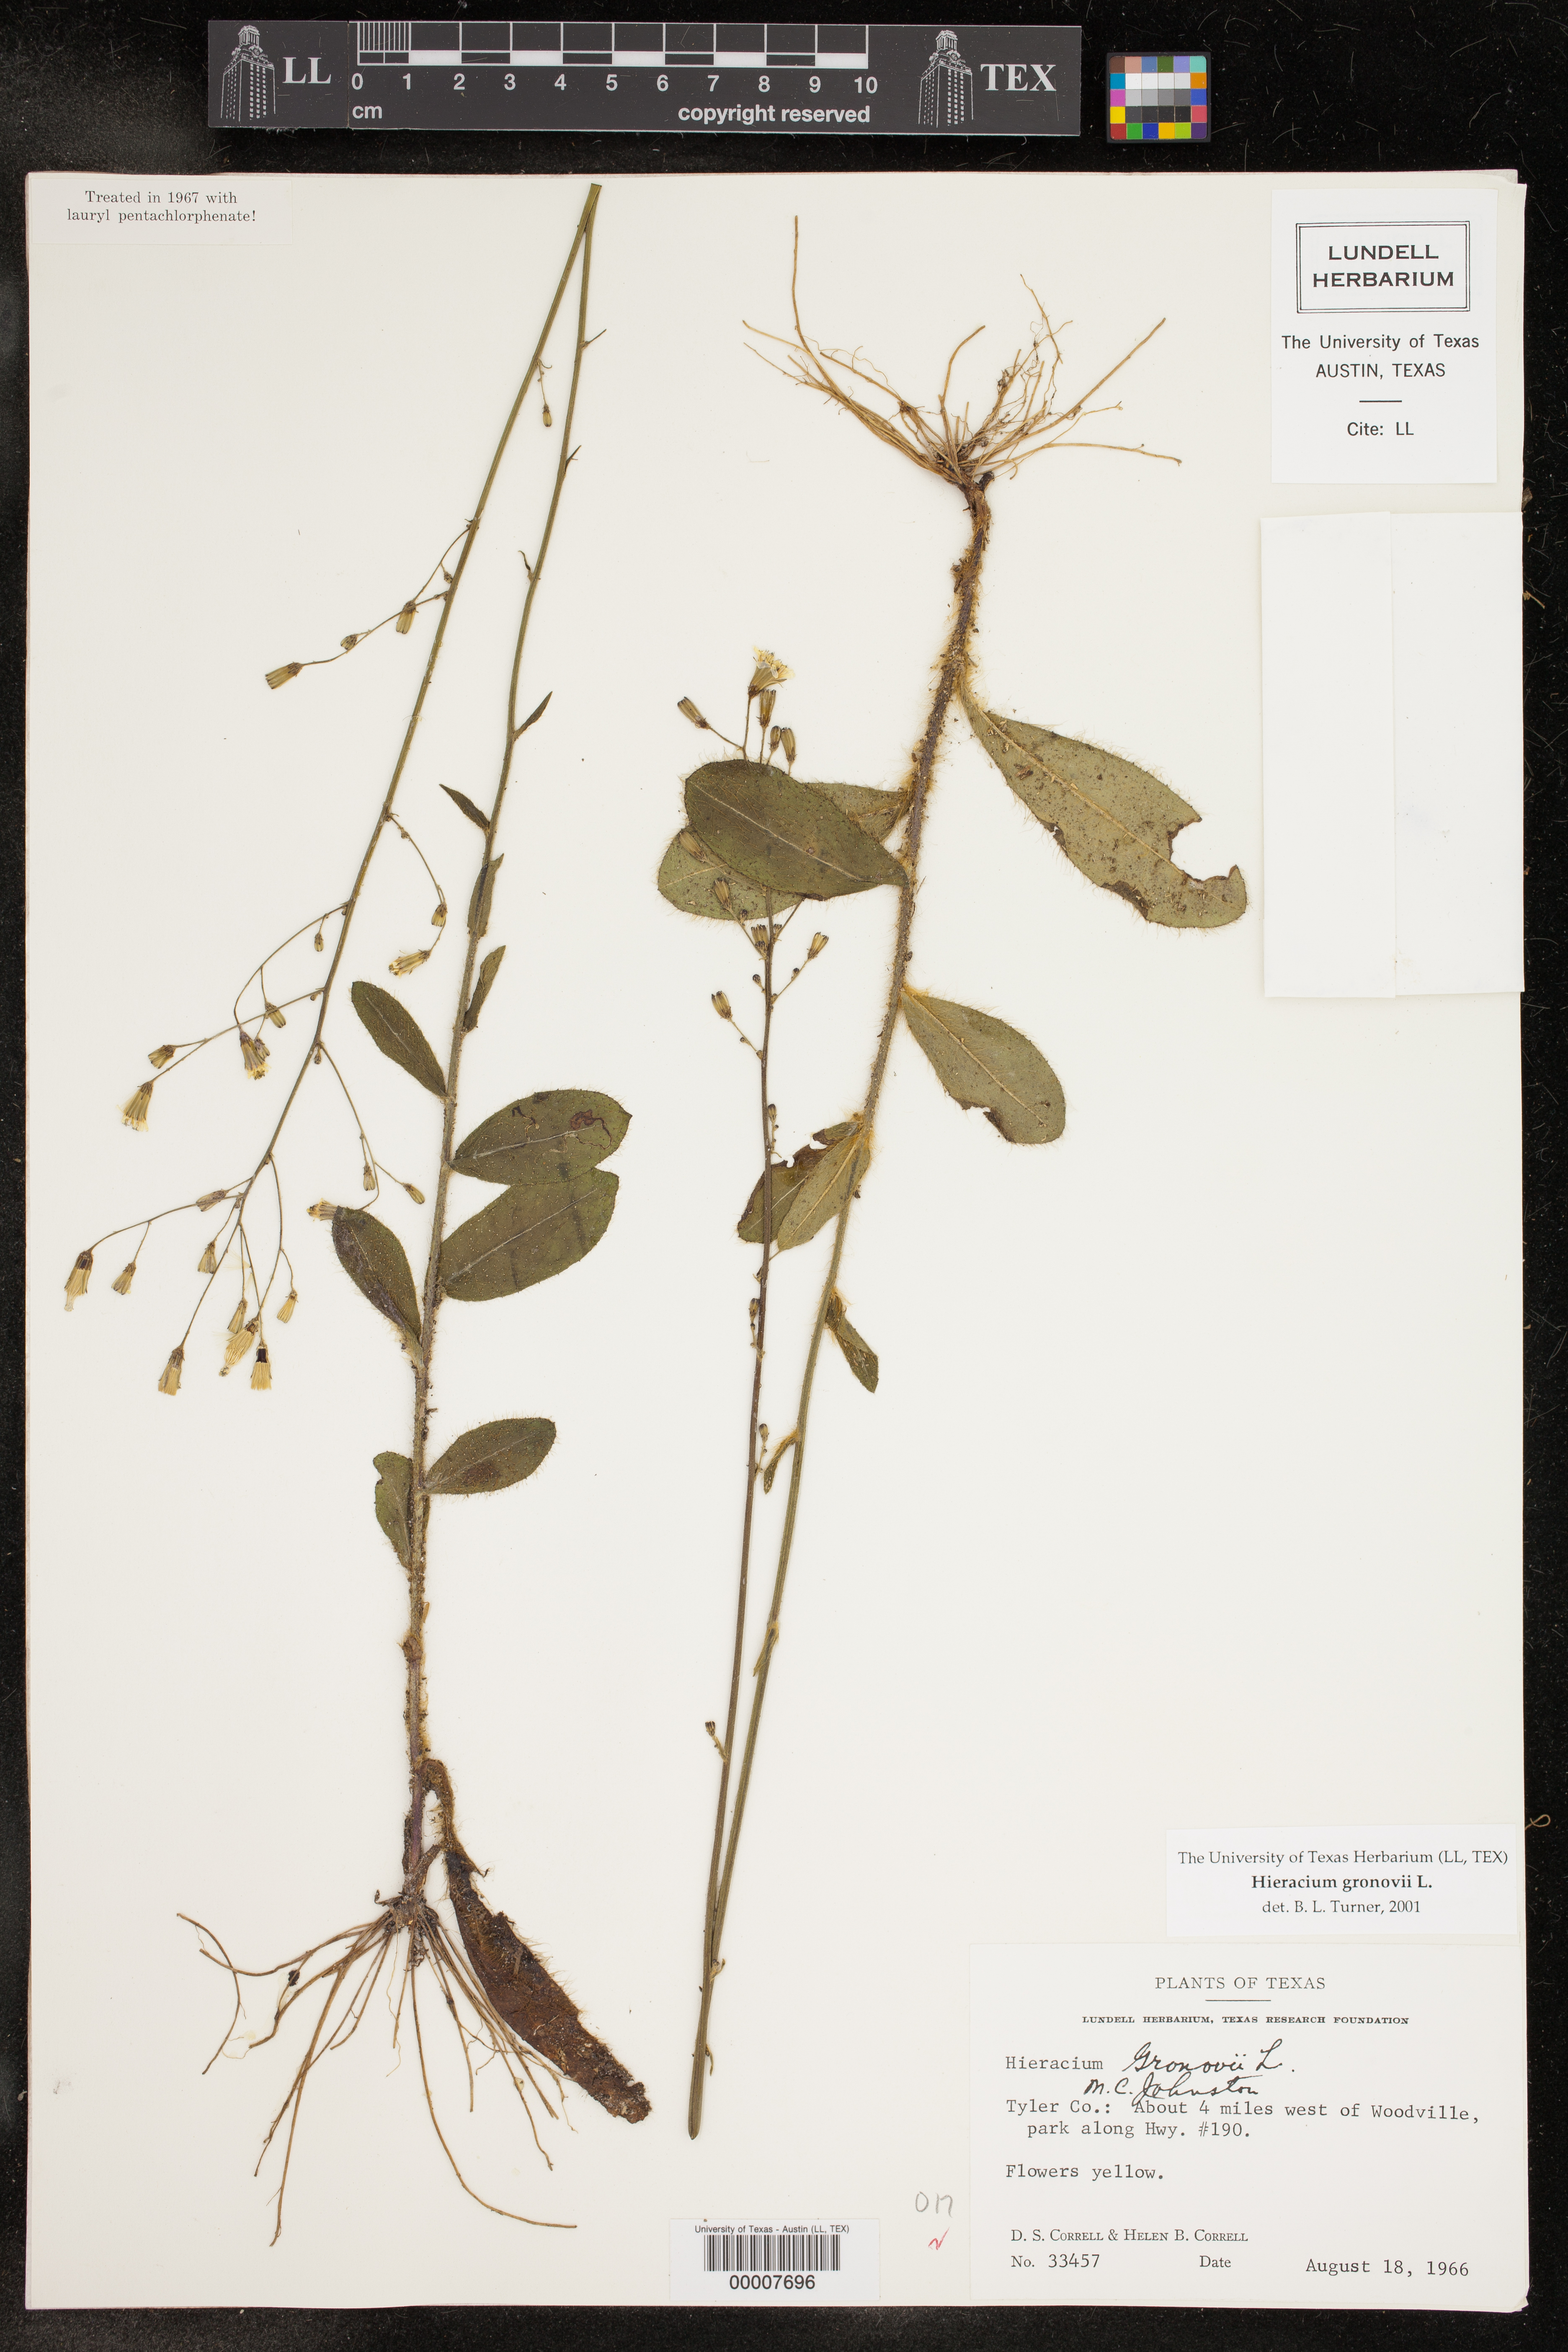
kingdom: Plantae
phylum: Tracheophyta
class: Magnoliopsida
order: Asterales
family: Asteraceae
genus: Hieracium
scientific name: Hieracium gronovii
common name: Beaked hawkweed
